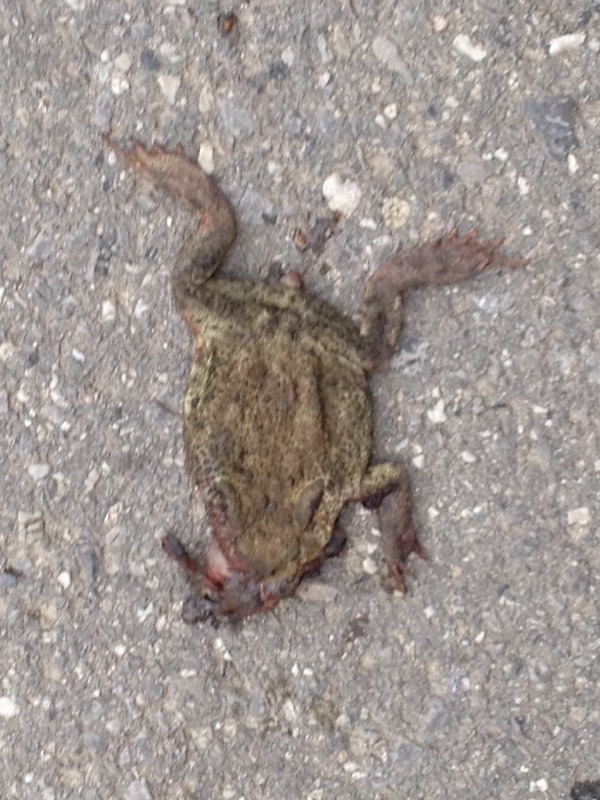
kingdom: Animalia
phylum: Chordata
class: Amphibia
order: Anura
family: Bufonidae
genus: Bufo
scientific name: Bufo bufo
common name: Common toad
